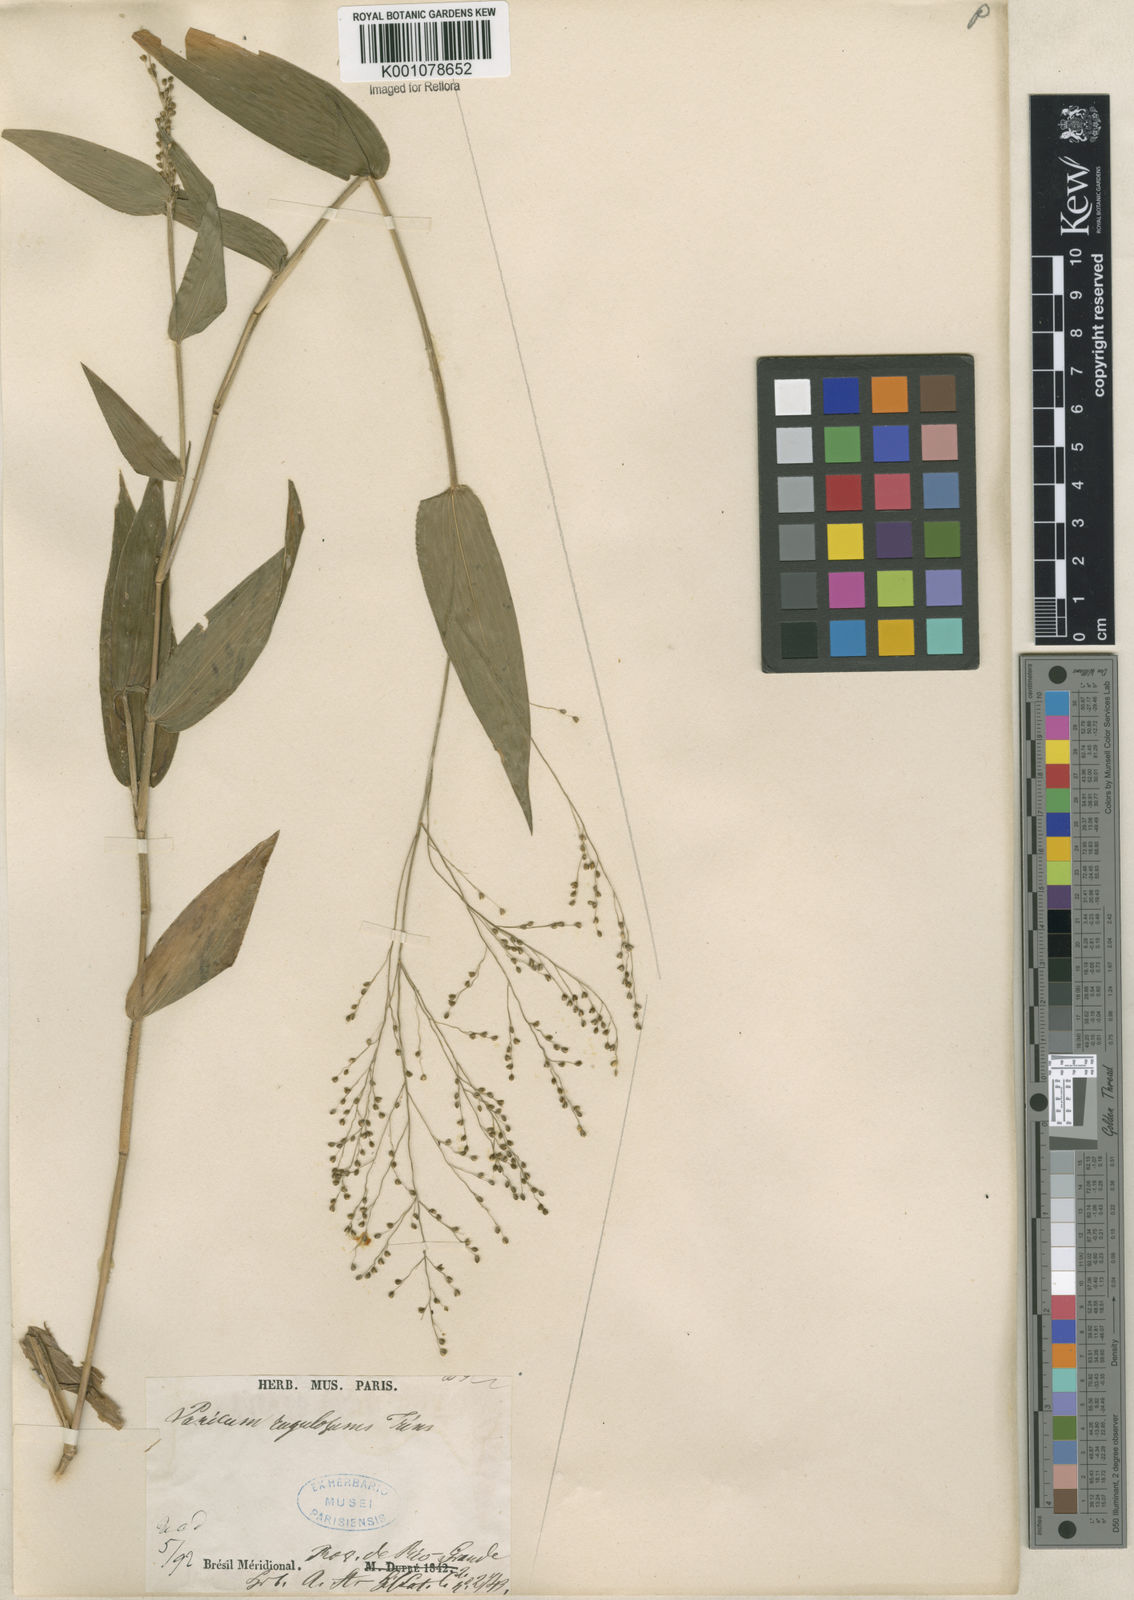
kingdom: Plantae
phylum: Tracheophyta
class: Liliopsida
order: Poales
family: Poaceae
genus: Panicum
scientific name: Panicum millegrana
